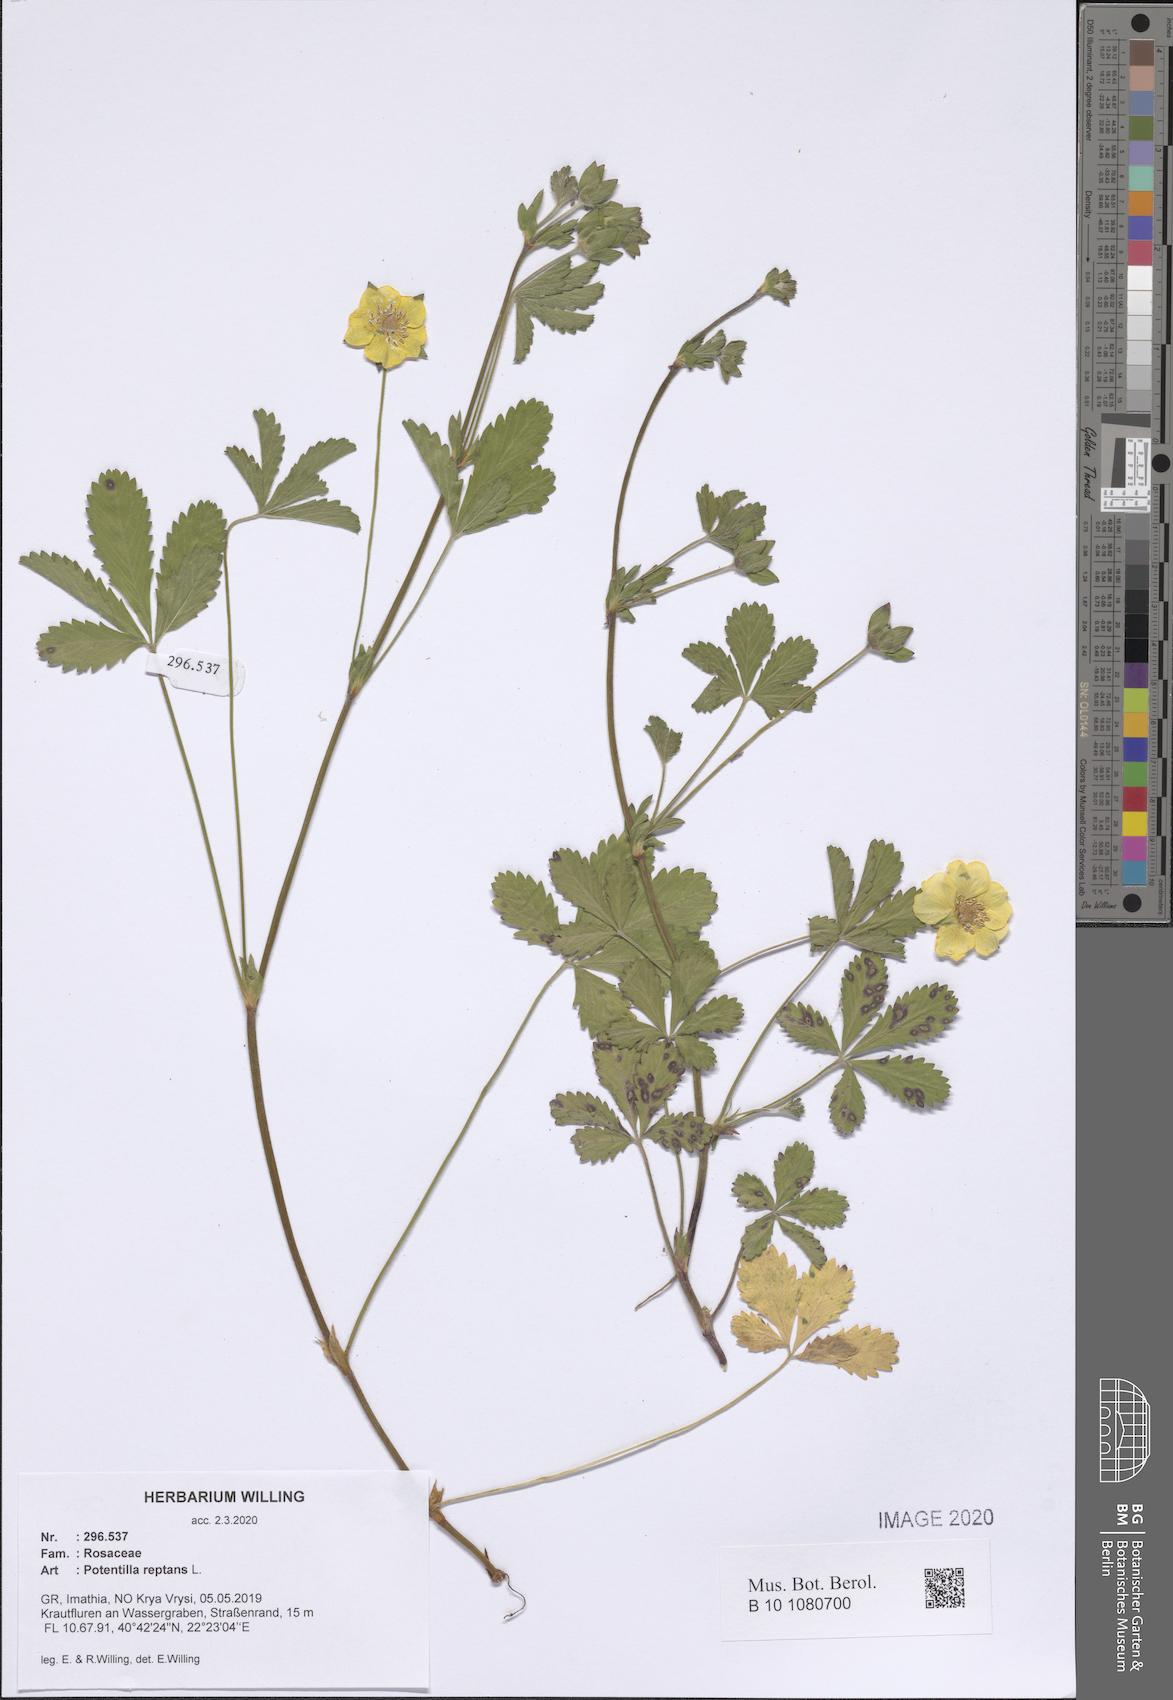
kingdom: Plantae
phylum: Tracheophyta
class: Magnoliopsida
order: Rosales
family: Rosaceae
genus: Potentilla
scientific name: Potentilla reptans
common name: Creeping cinquefoil
